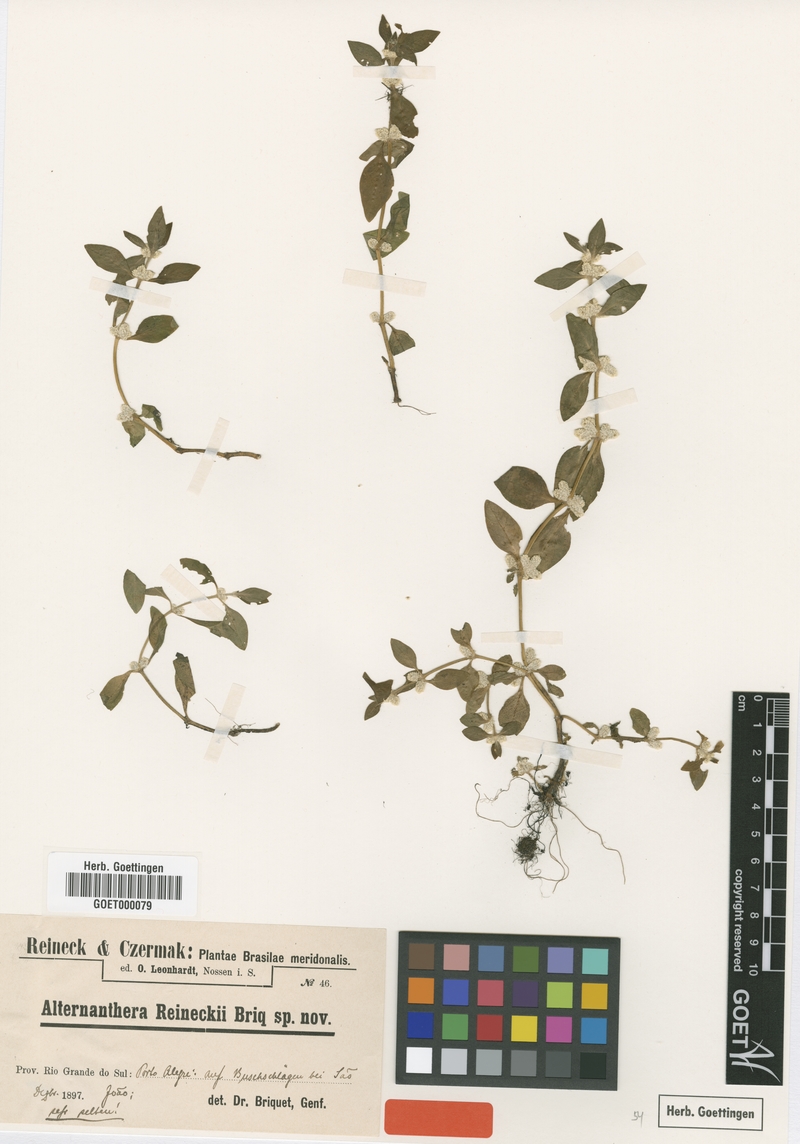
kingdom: Plantae
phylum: Tracheophyta
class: Magnoliopsida
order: Caryophyllales
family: Amaranthaceae
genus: Alternanthera
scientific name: Alternanthera reineckii
